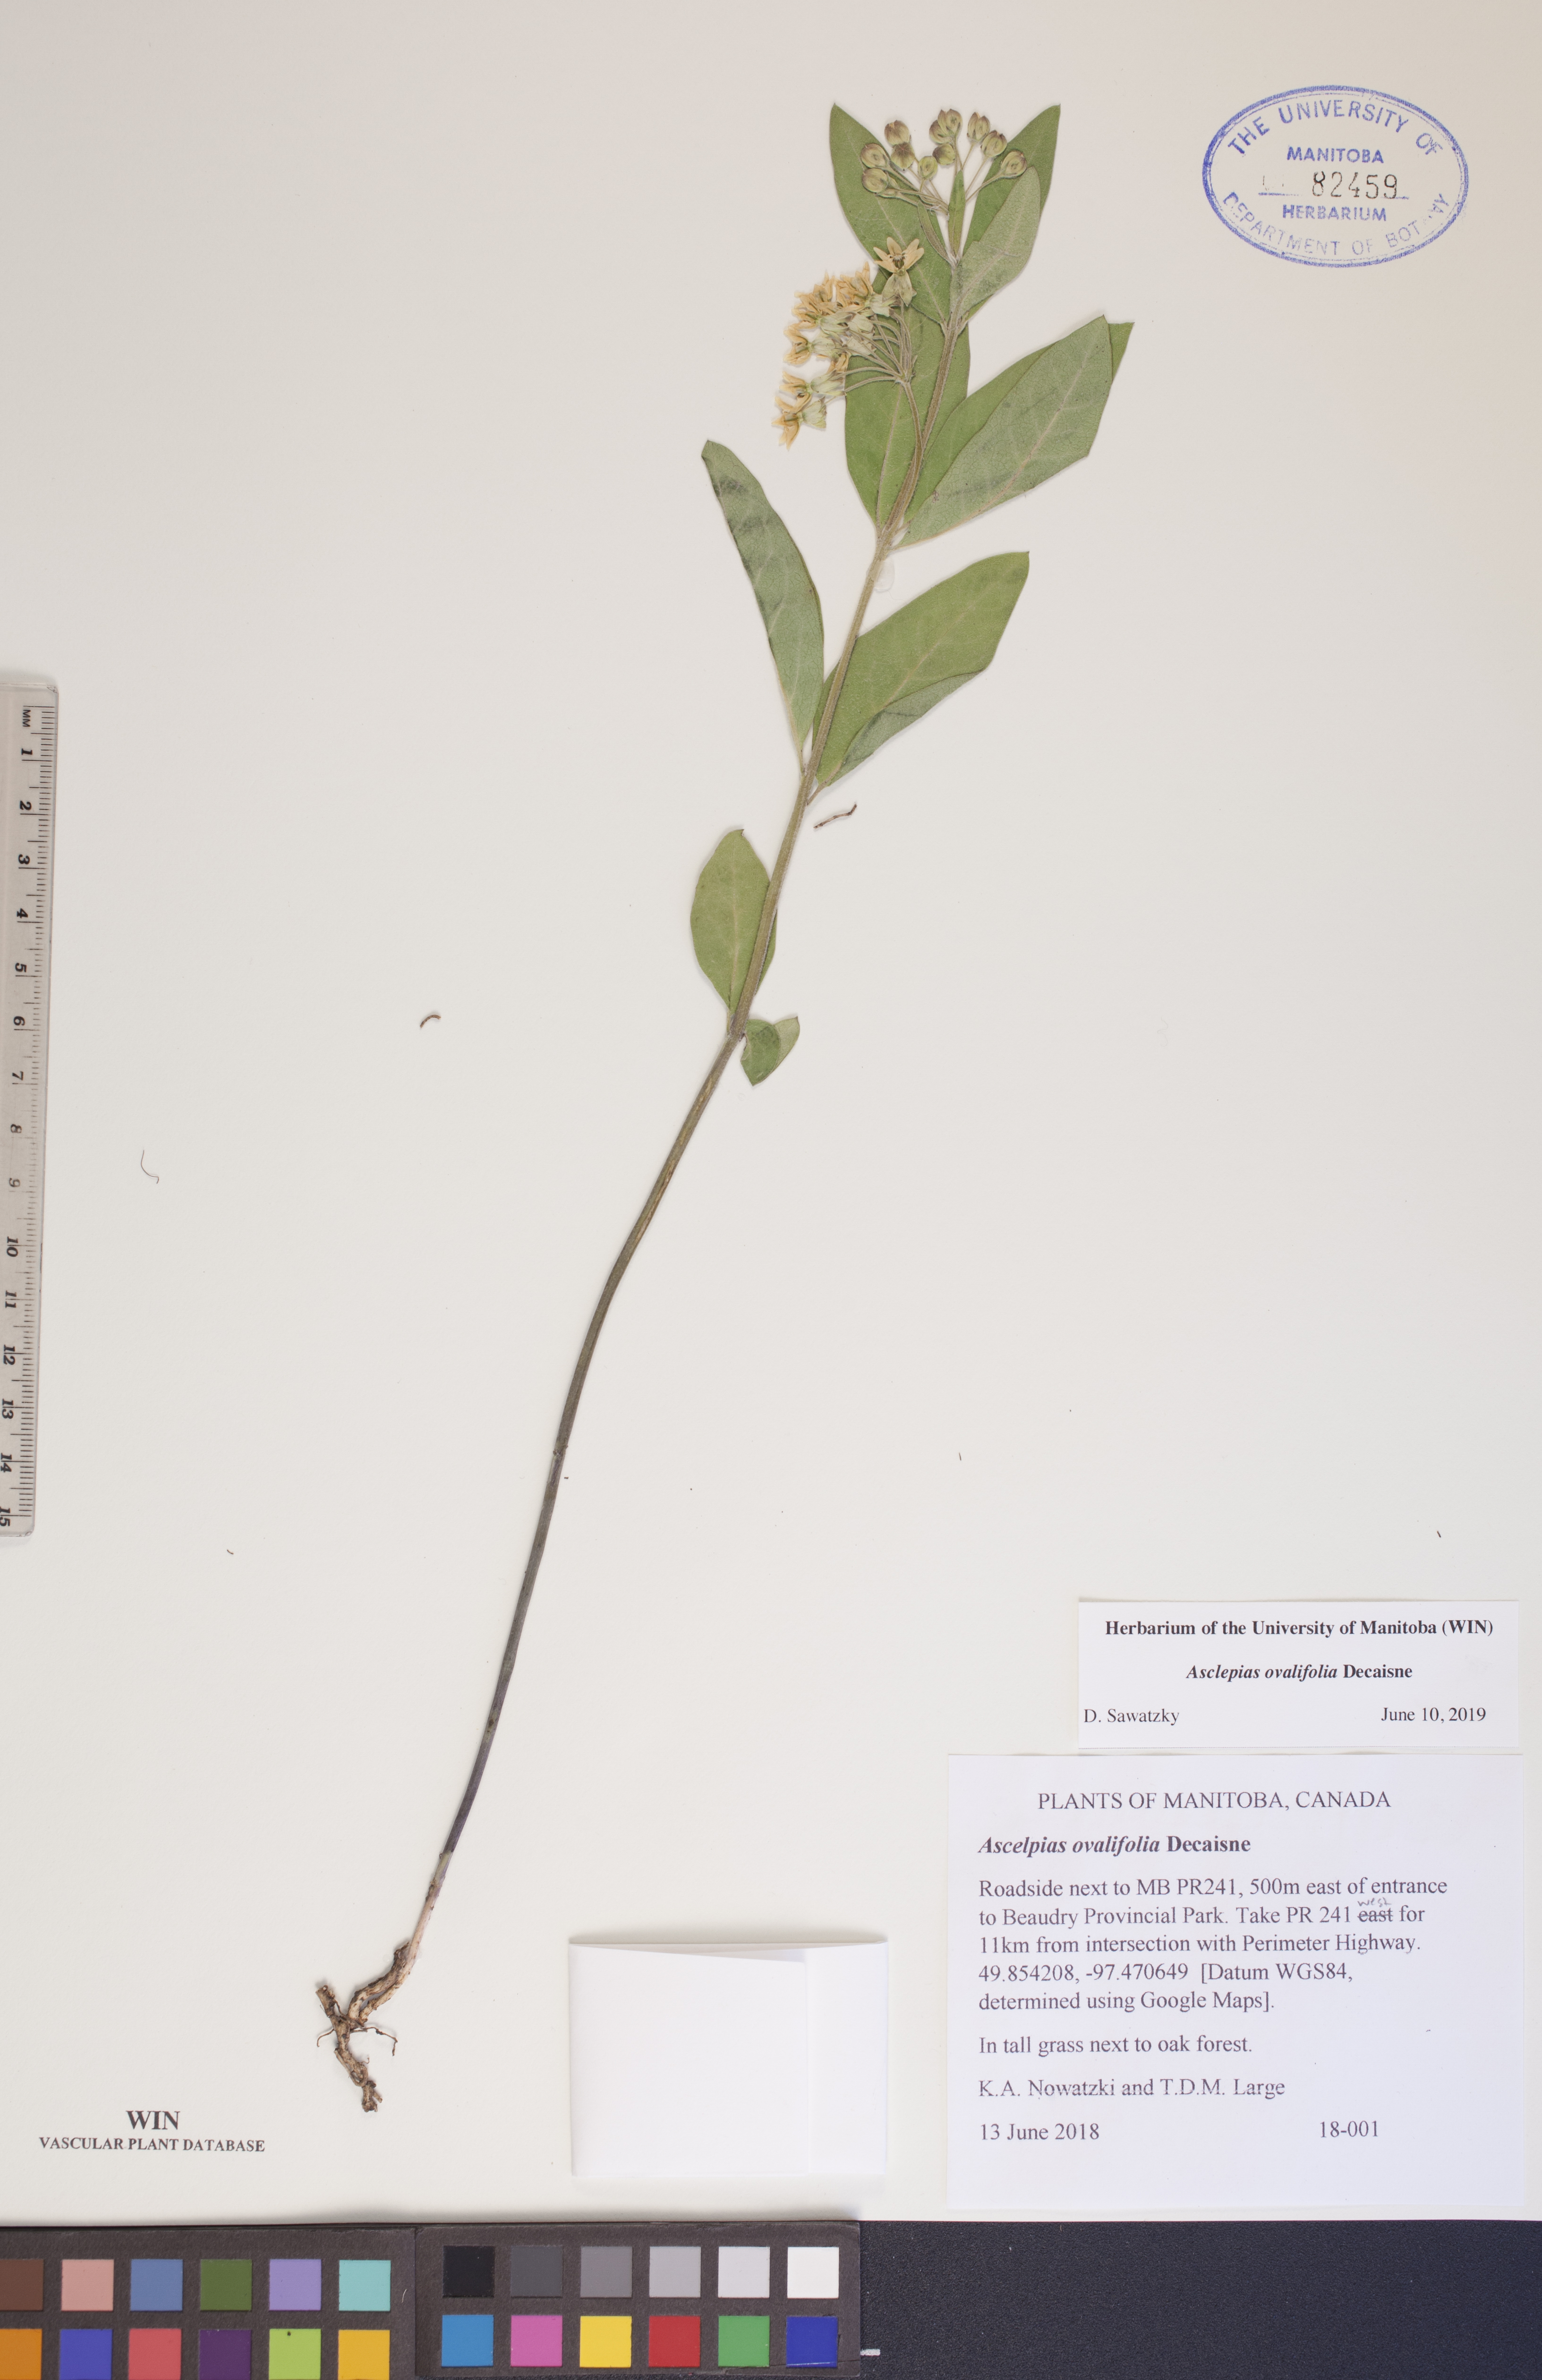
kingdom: Plantae
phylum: Tracheophyta
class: Magnoliopsida
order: Gentianales
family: Apocynaceae
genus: Asclepias
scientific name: Asclepias ovalifolia
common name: Dwarf milkweed
